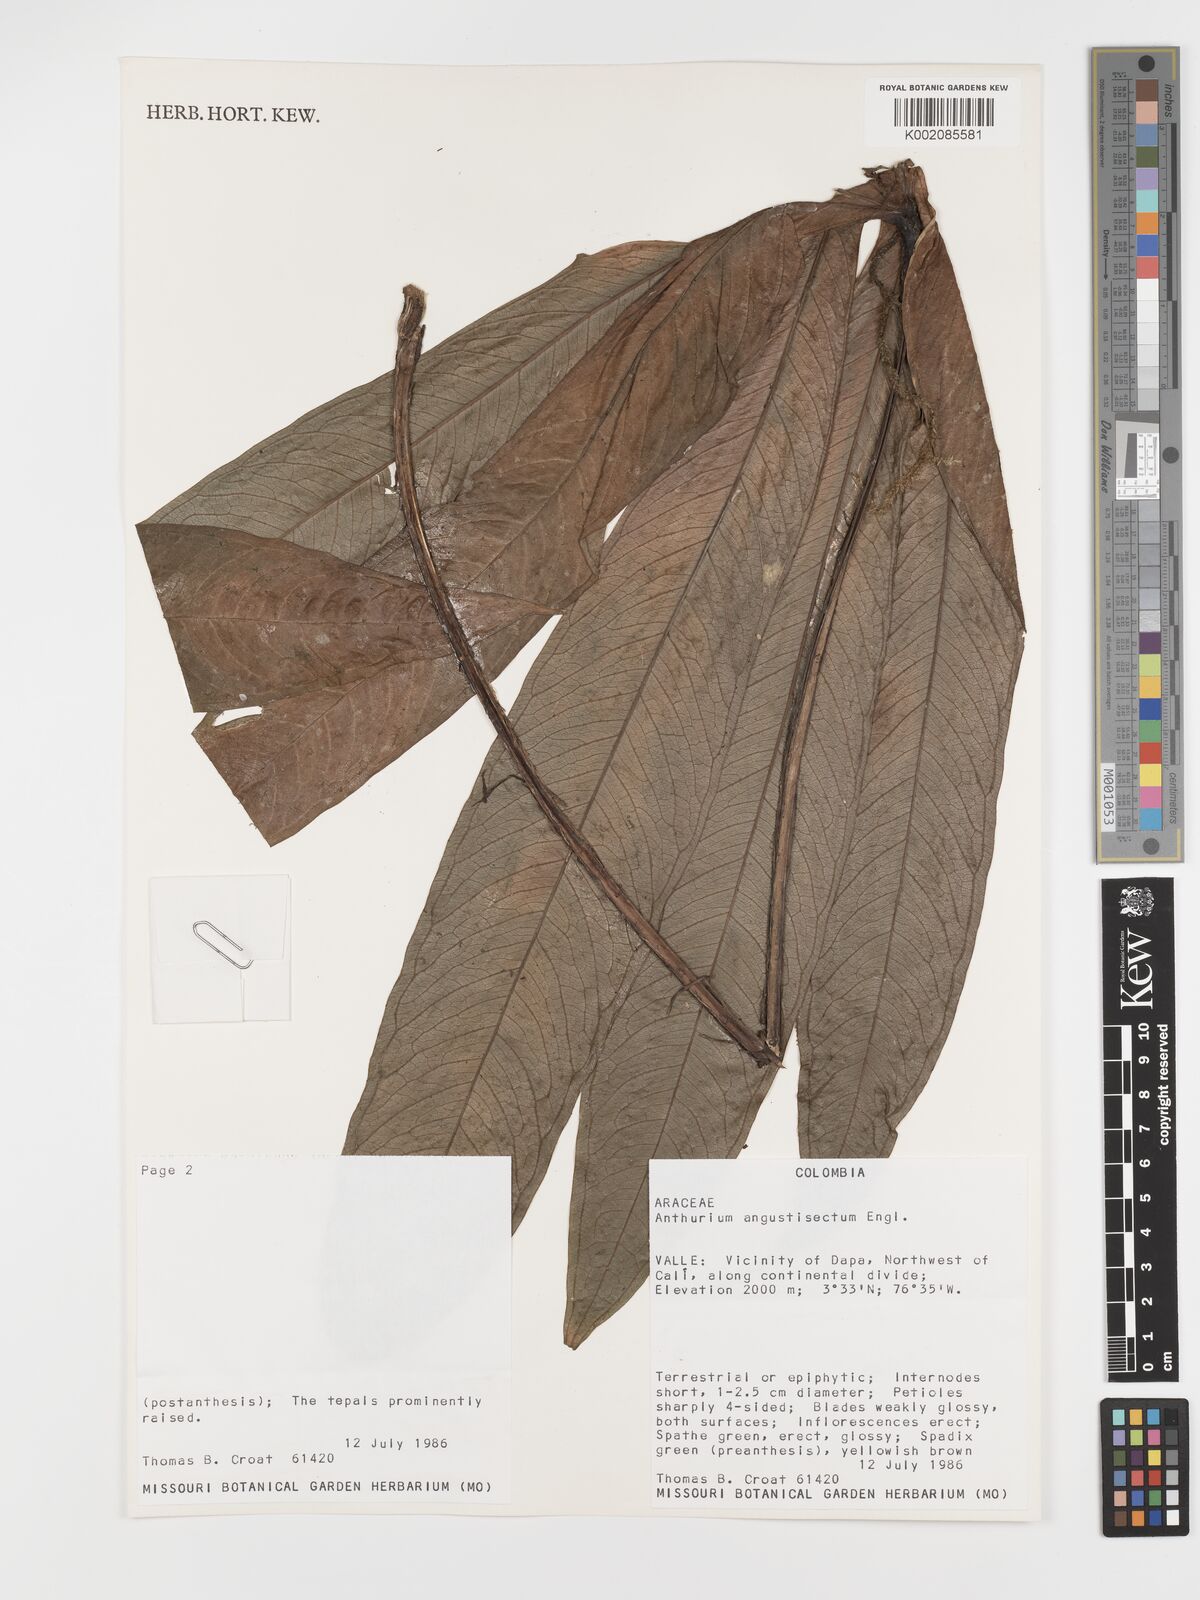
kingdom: Plantae
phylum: Tracheophyta
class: Liliopsida
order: Alismatales
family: Araceae
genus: Anthurium
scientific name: Anthurium angustisectum
